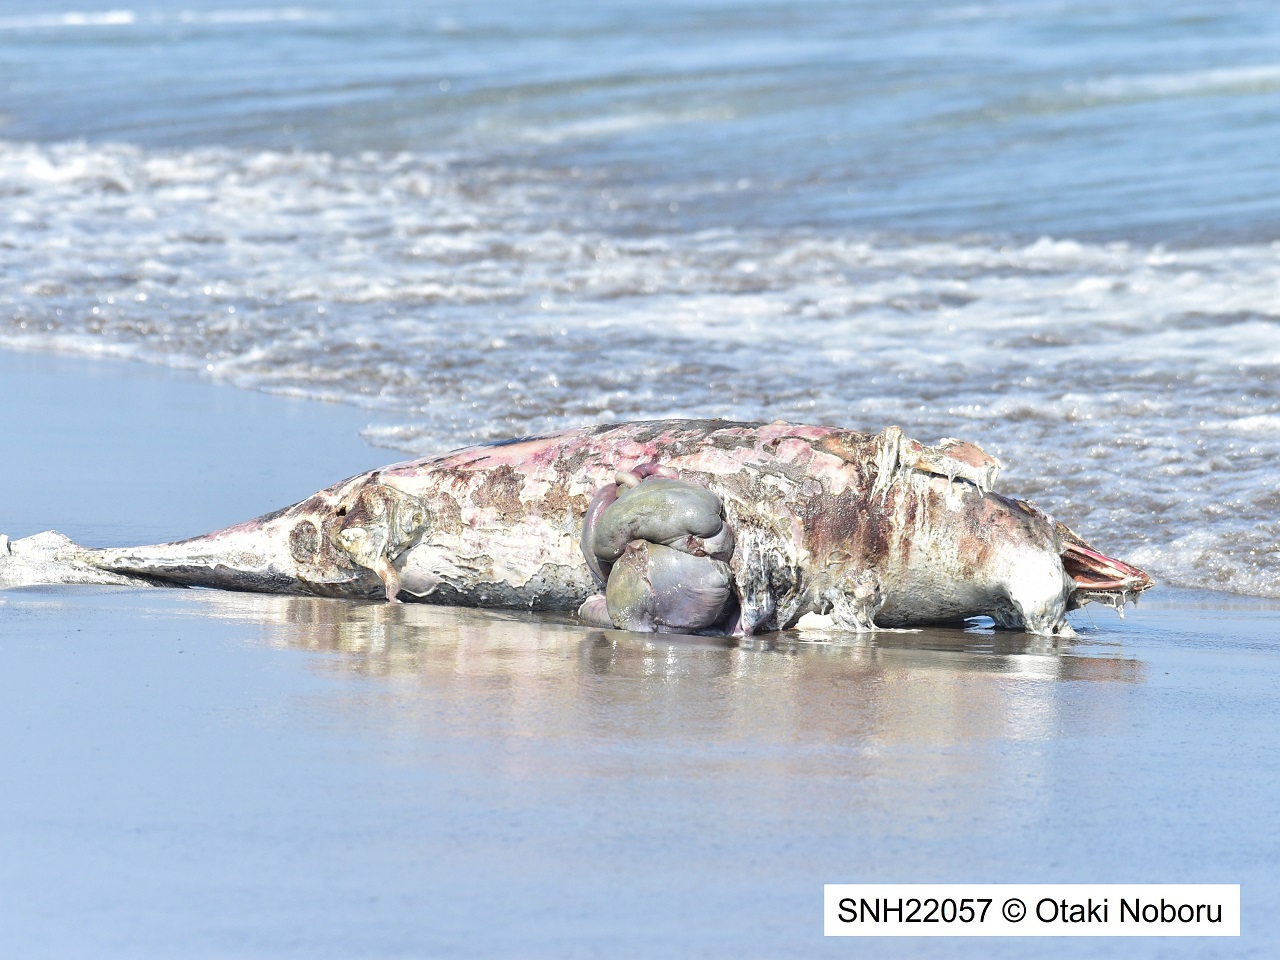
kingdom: Animalia
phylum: Chordata
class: Mammalia
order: Cetacea
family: Delphinidae
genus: Lagenorhynchus
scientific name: Lagenorhynchus obliquidens
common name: Pacific white-sided dolphin
